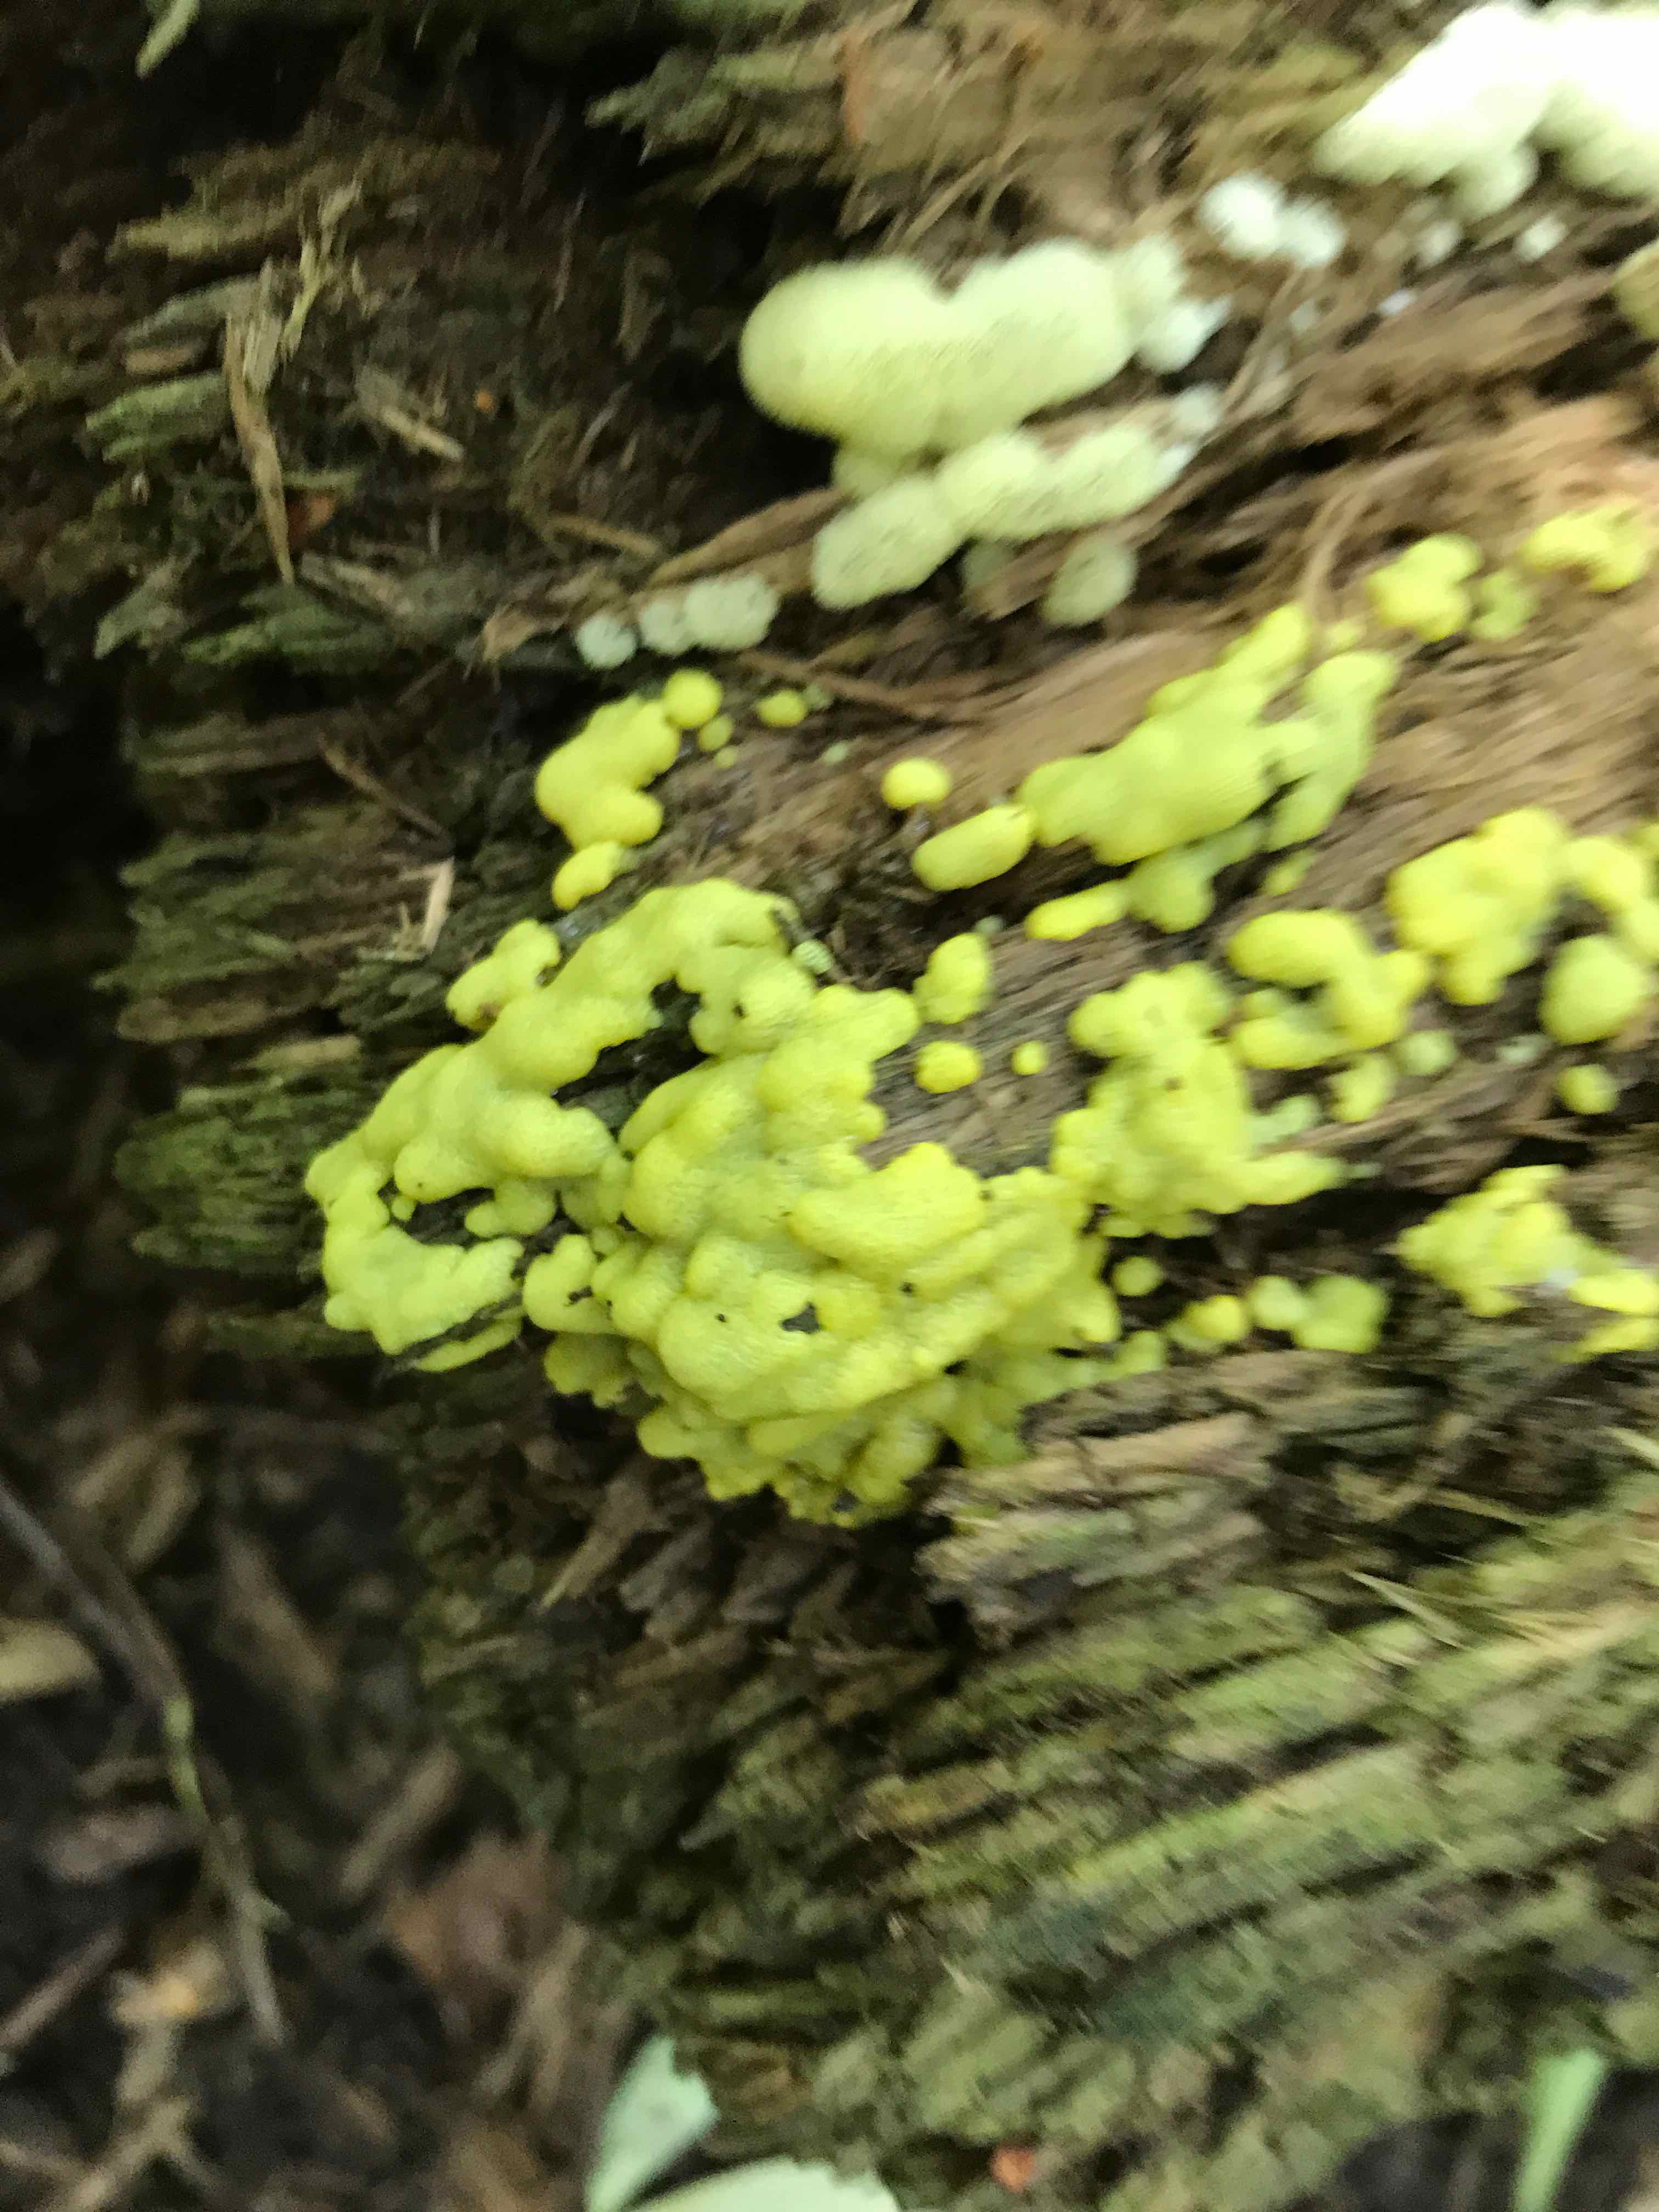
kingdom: Protozoa
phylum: Mycetozoa
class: Protosteliomycetes
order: Ceratiomyxales
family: Ceratiomyxaceae
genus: Ceratiomyxa
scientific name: Ceratiomyxa fruticulosa
